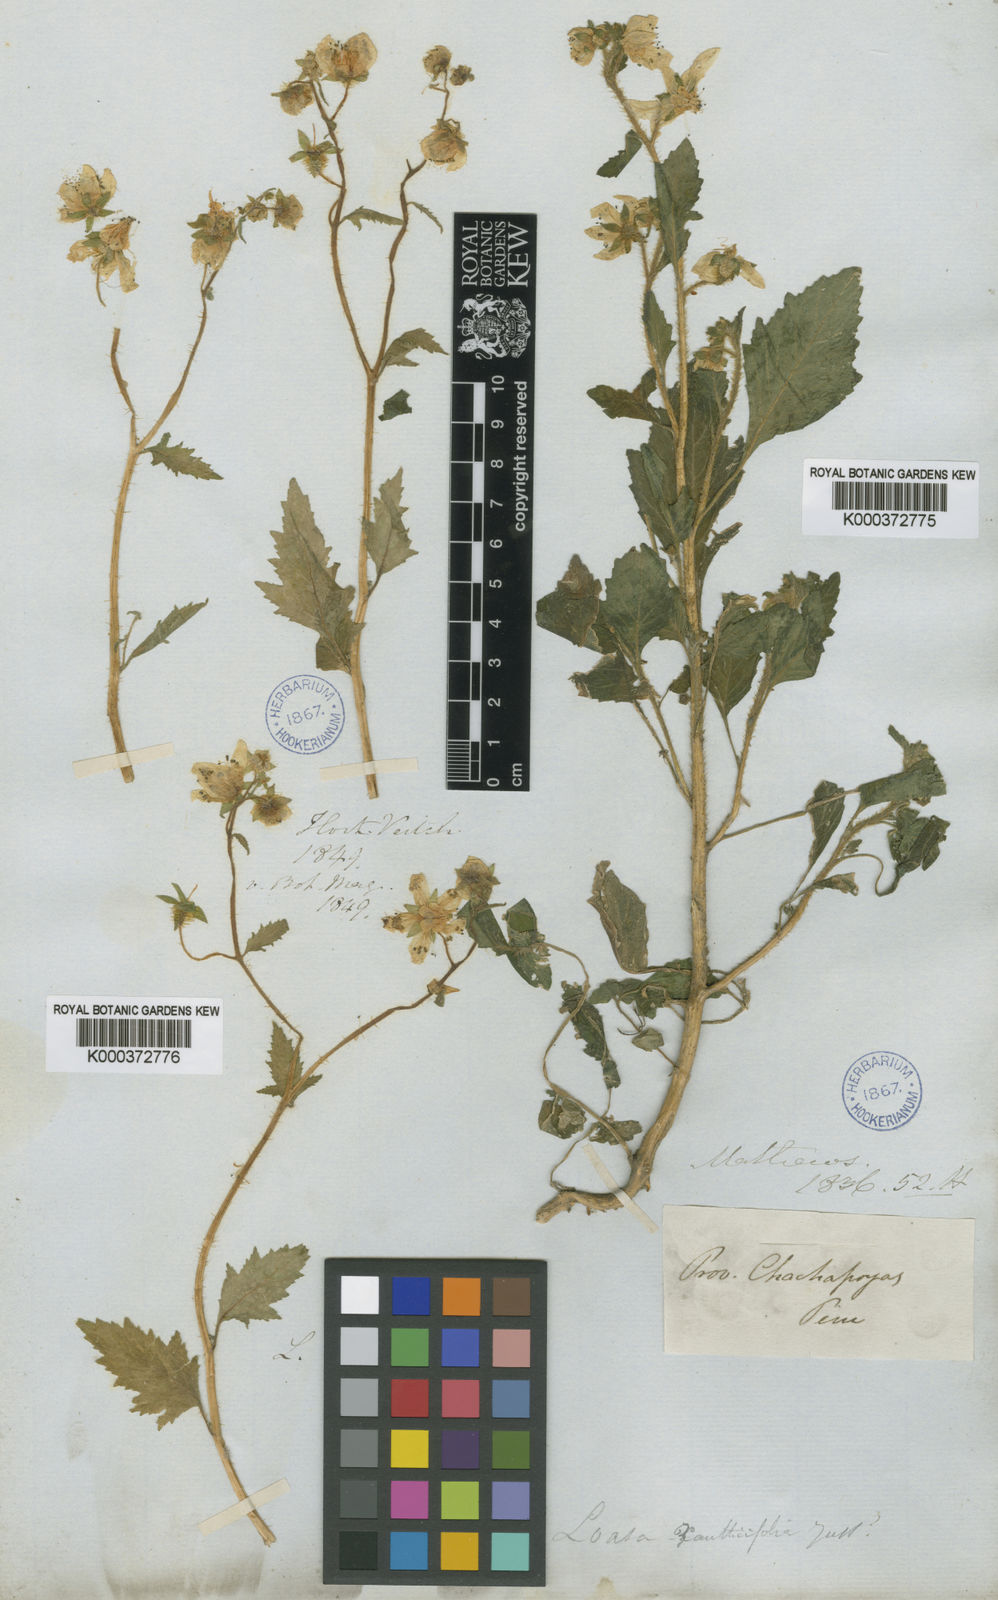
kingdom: Plantae
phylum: Tracheophyta
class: Magnoliopsida
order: Cornales
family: Loasaceae
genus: Nasa
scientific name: Nasa picta
